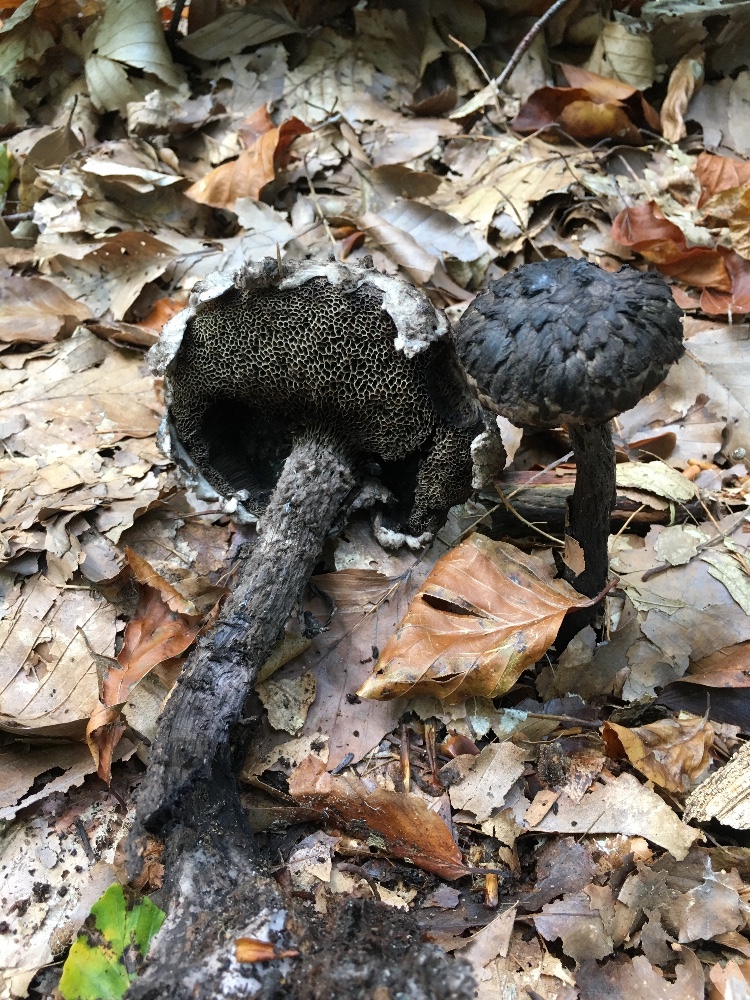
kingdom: Fungi
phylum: Basidiomycota
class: Agaricomycetes
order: Boletales
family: Boletaceae
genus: Strobilomyces
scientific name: Strobilomyces strobilaceus
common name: koglerørhat
